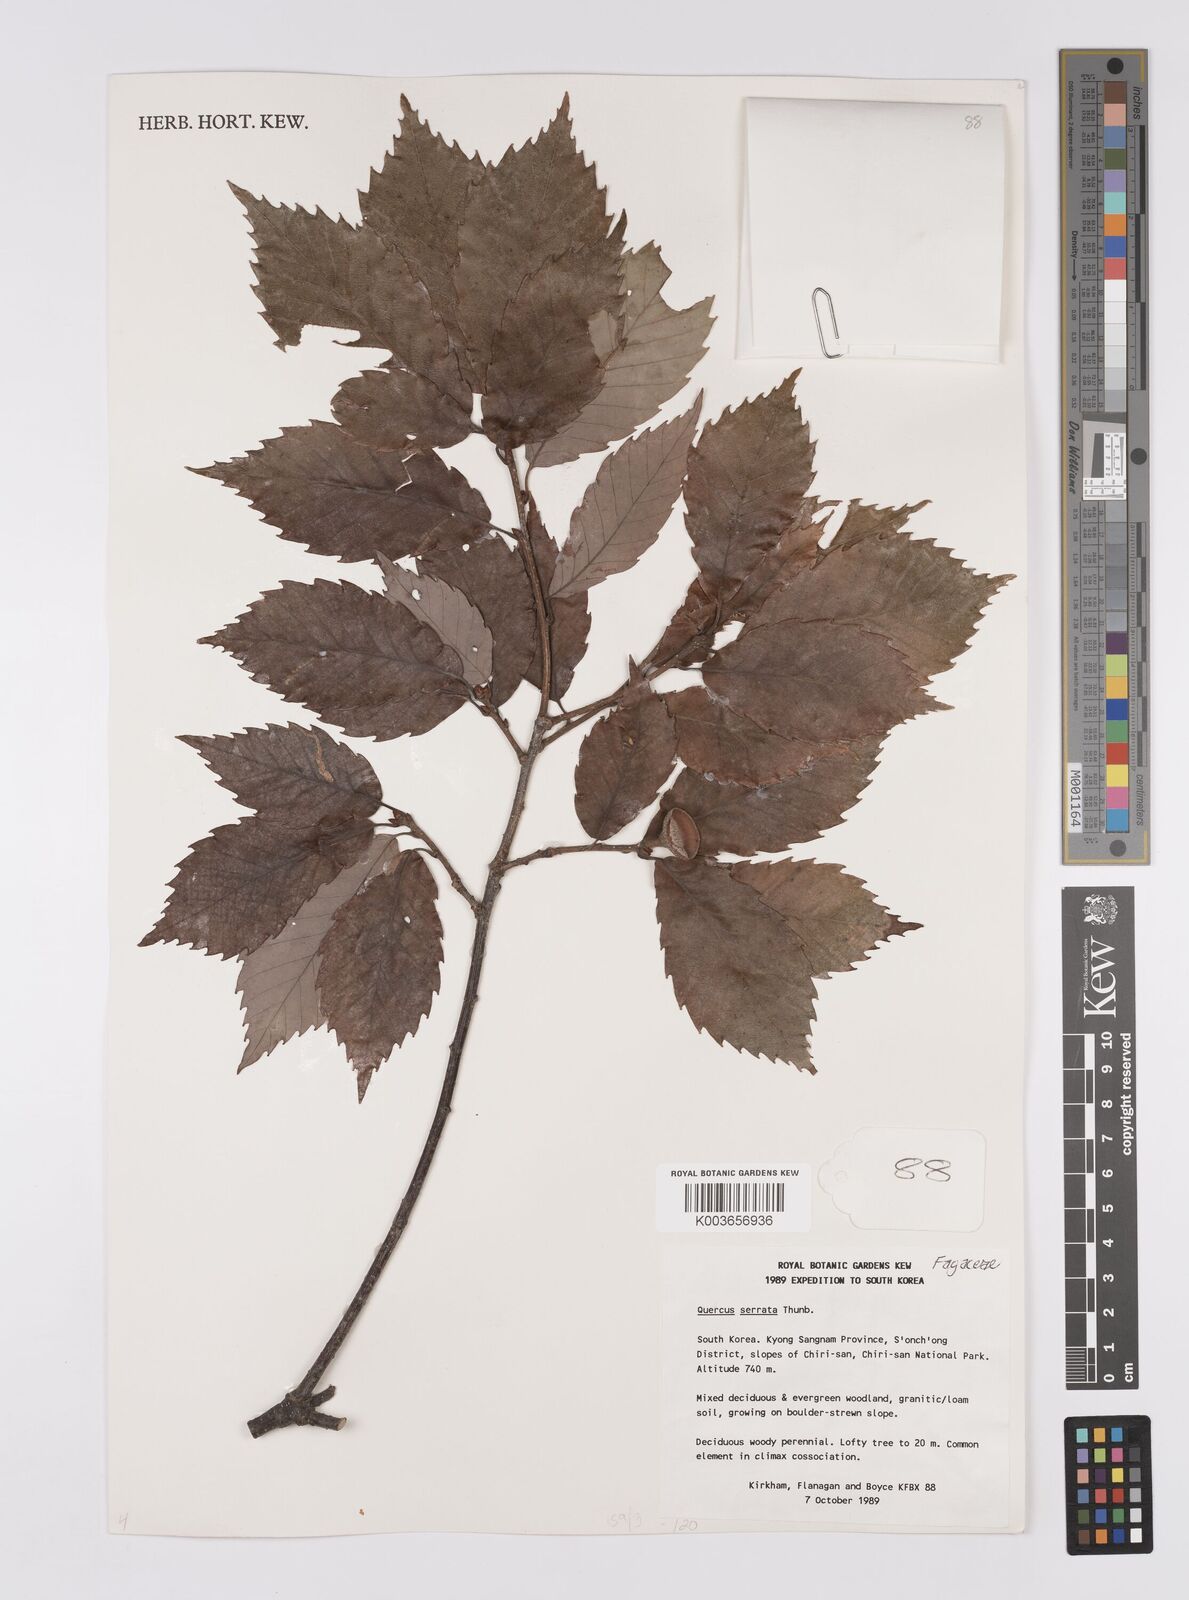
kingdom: Plantae
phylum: Tracheophyta
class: Magnoliopsida
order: Fagales
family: Fagaceae
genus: Quercus
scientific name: Quercus serrata
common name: Bao li
